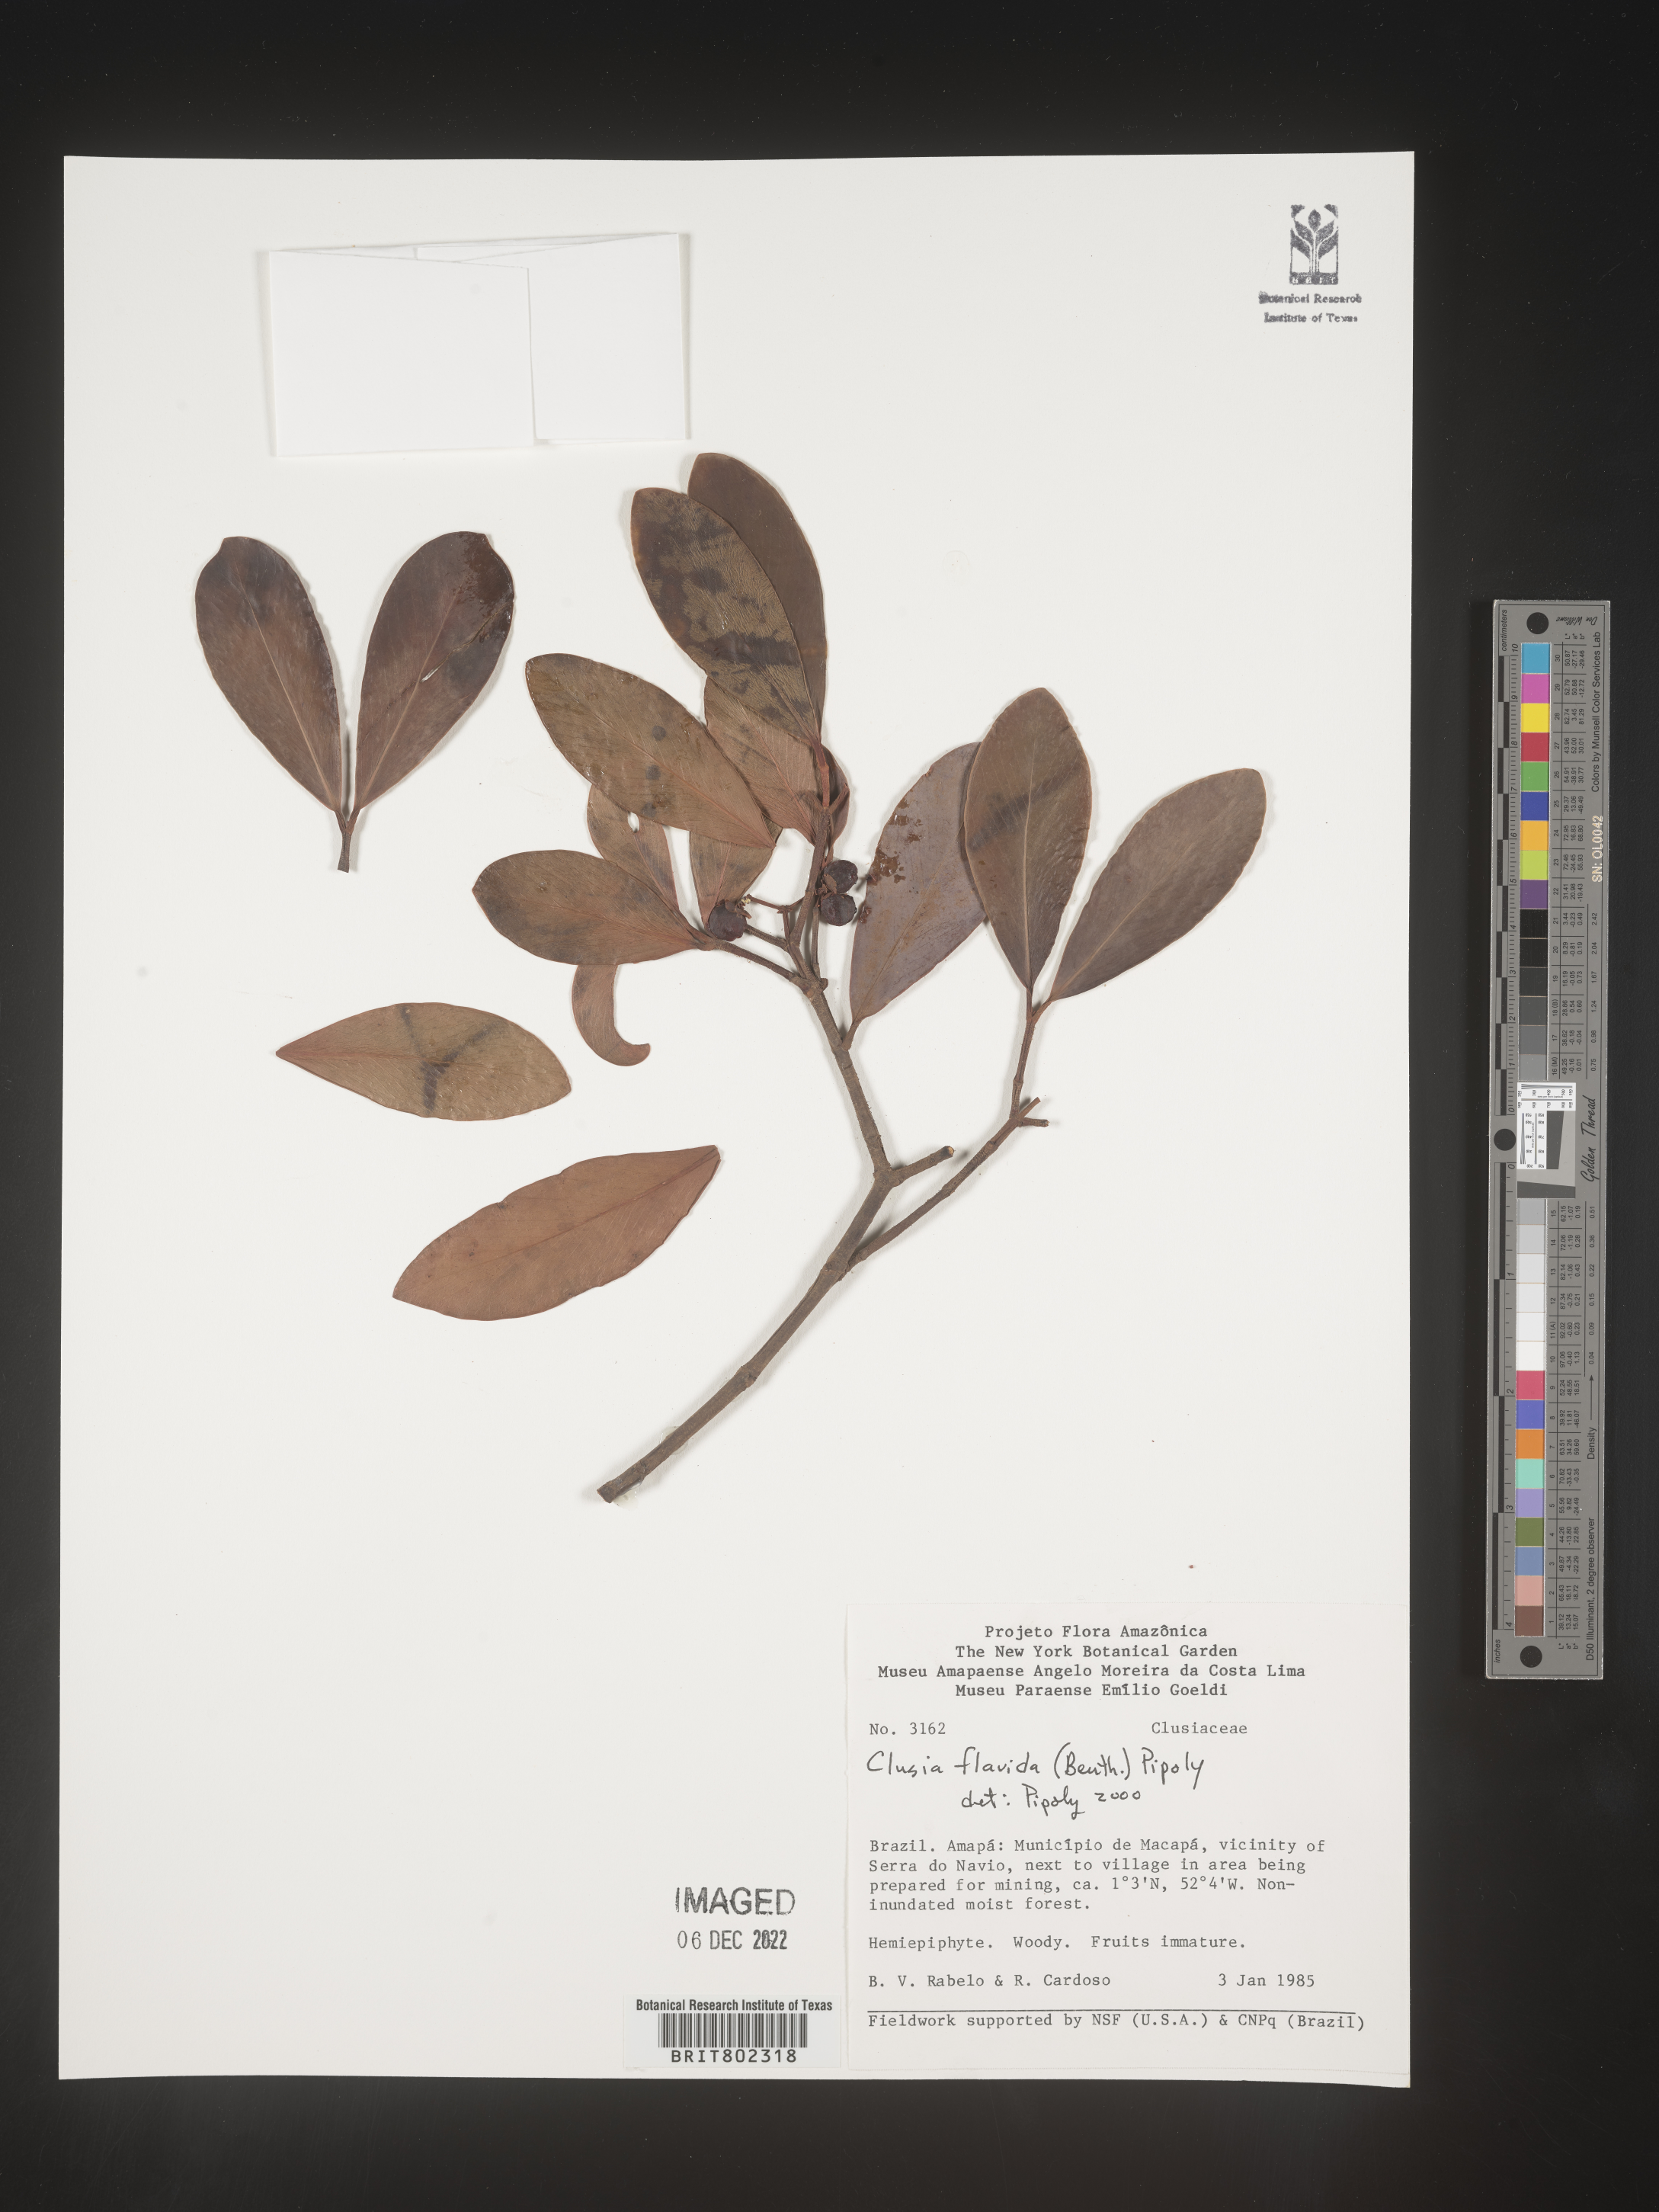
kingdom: Plantae
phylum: Tracheophyta
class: Magnoliopsida
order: Malpighiales
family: Clusiaceae
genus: Clusia
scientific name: Clusia flavida
